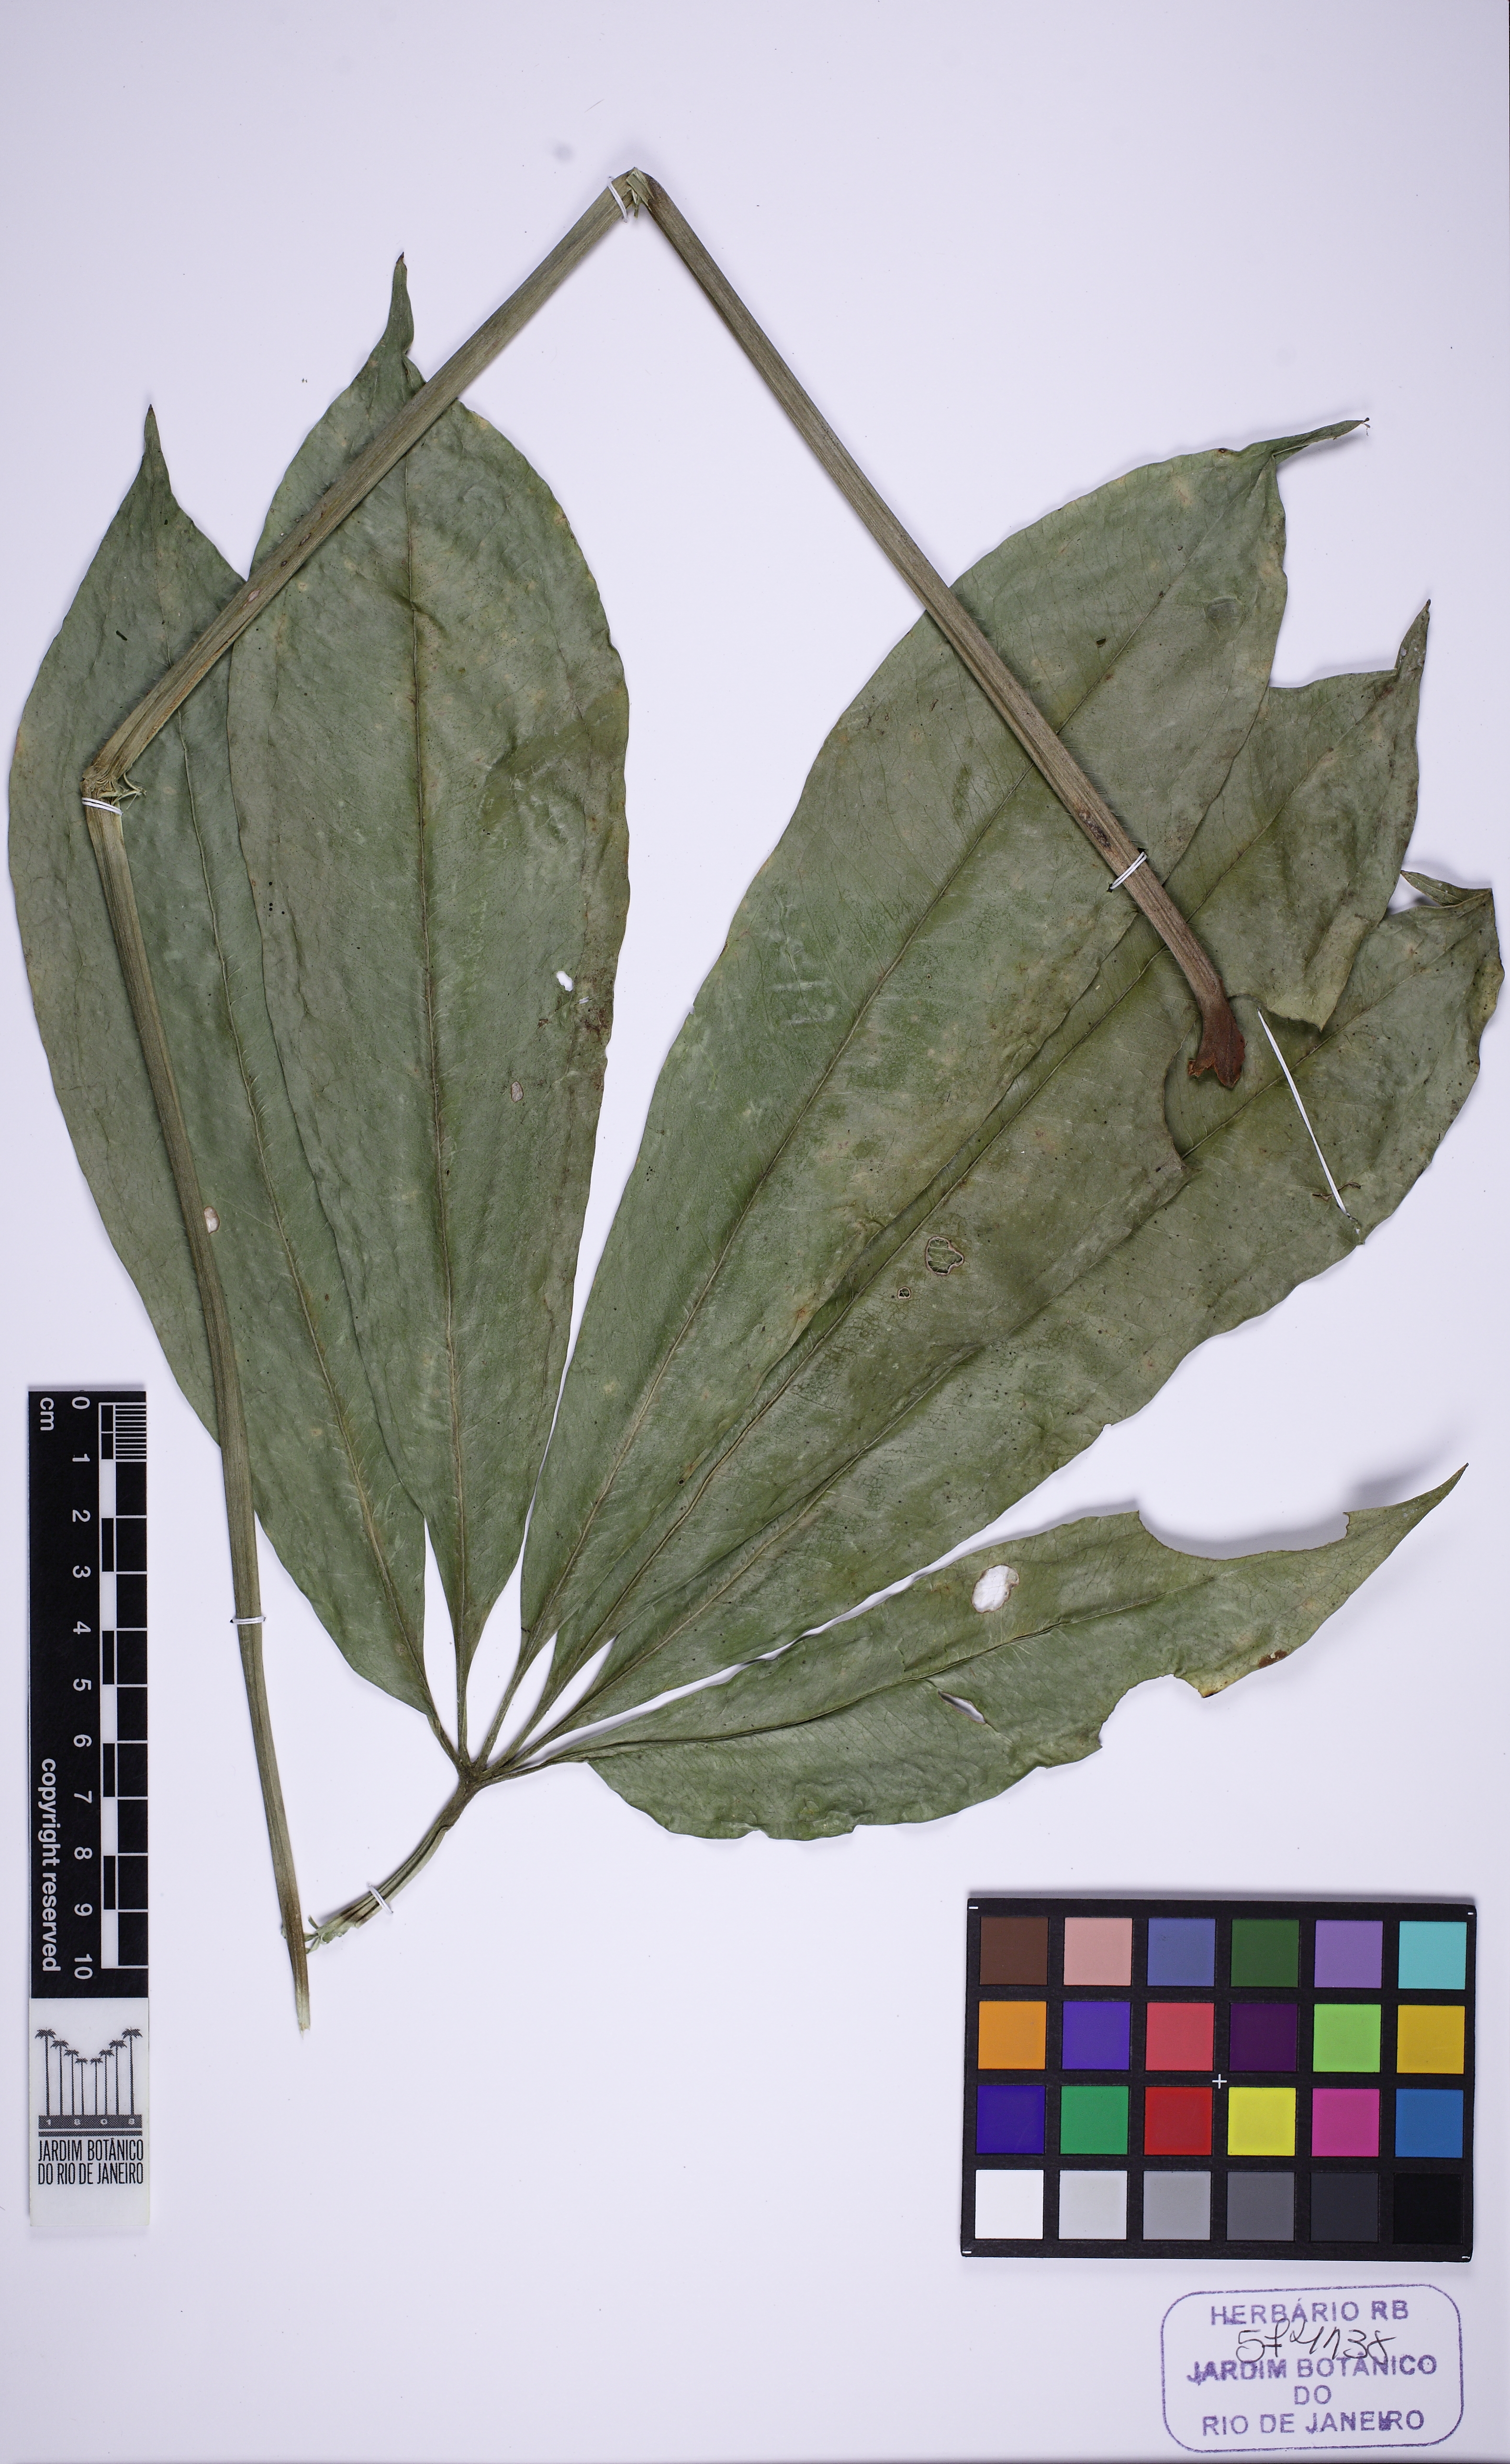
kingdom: Plantae
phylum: Tracheophyta
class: Liliopsida
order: Alismatales
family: Araceae
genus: Anthurium
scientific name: Anthurium pentaphyllum
